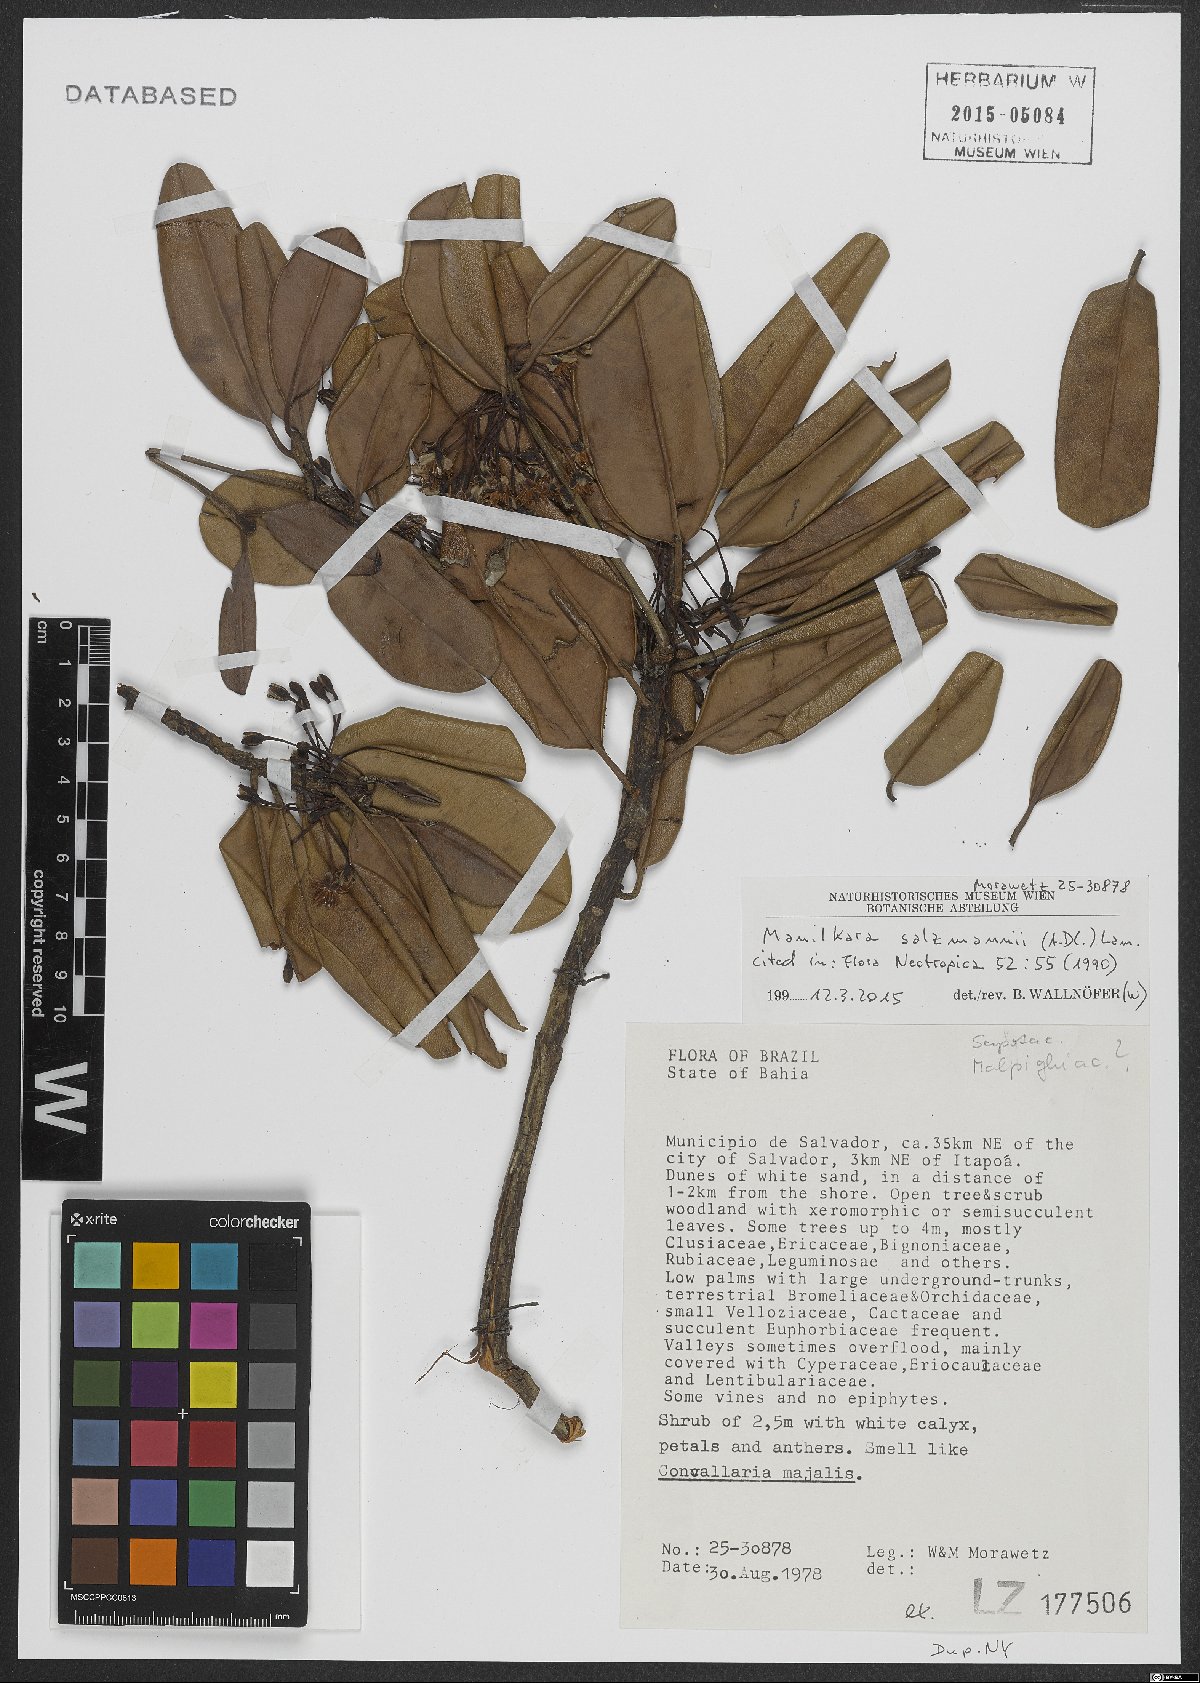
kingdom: Plantae
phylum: Tracheophyta
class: Magnoliopsida
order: Ericales
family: Sapotaceae
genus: Manilkara
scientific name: Manilkara salzmannii
